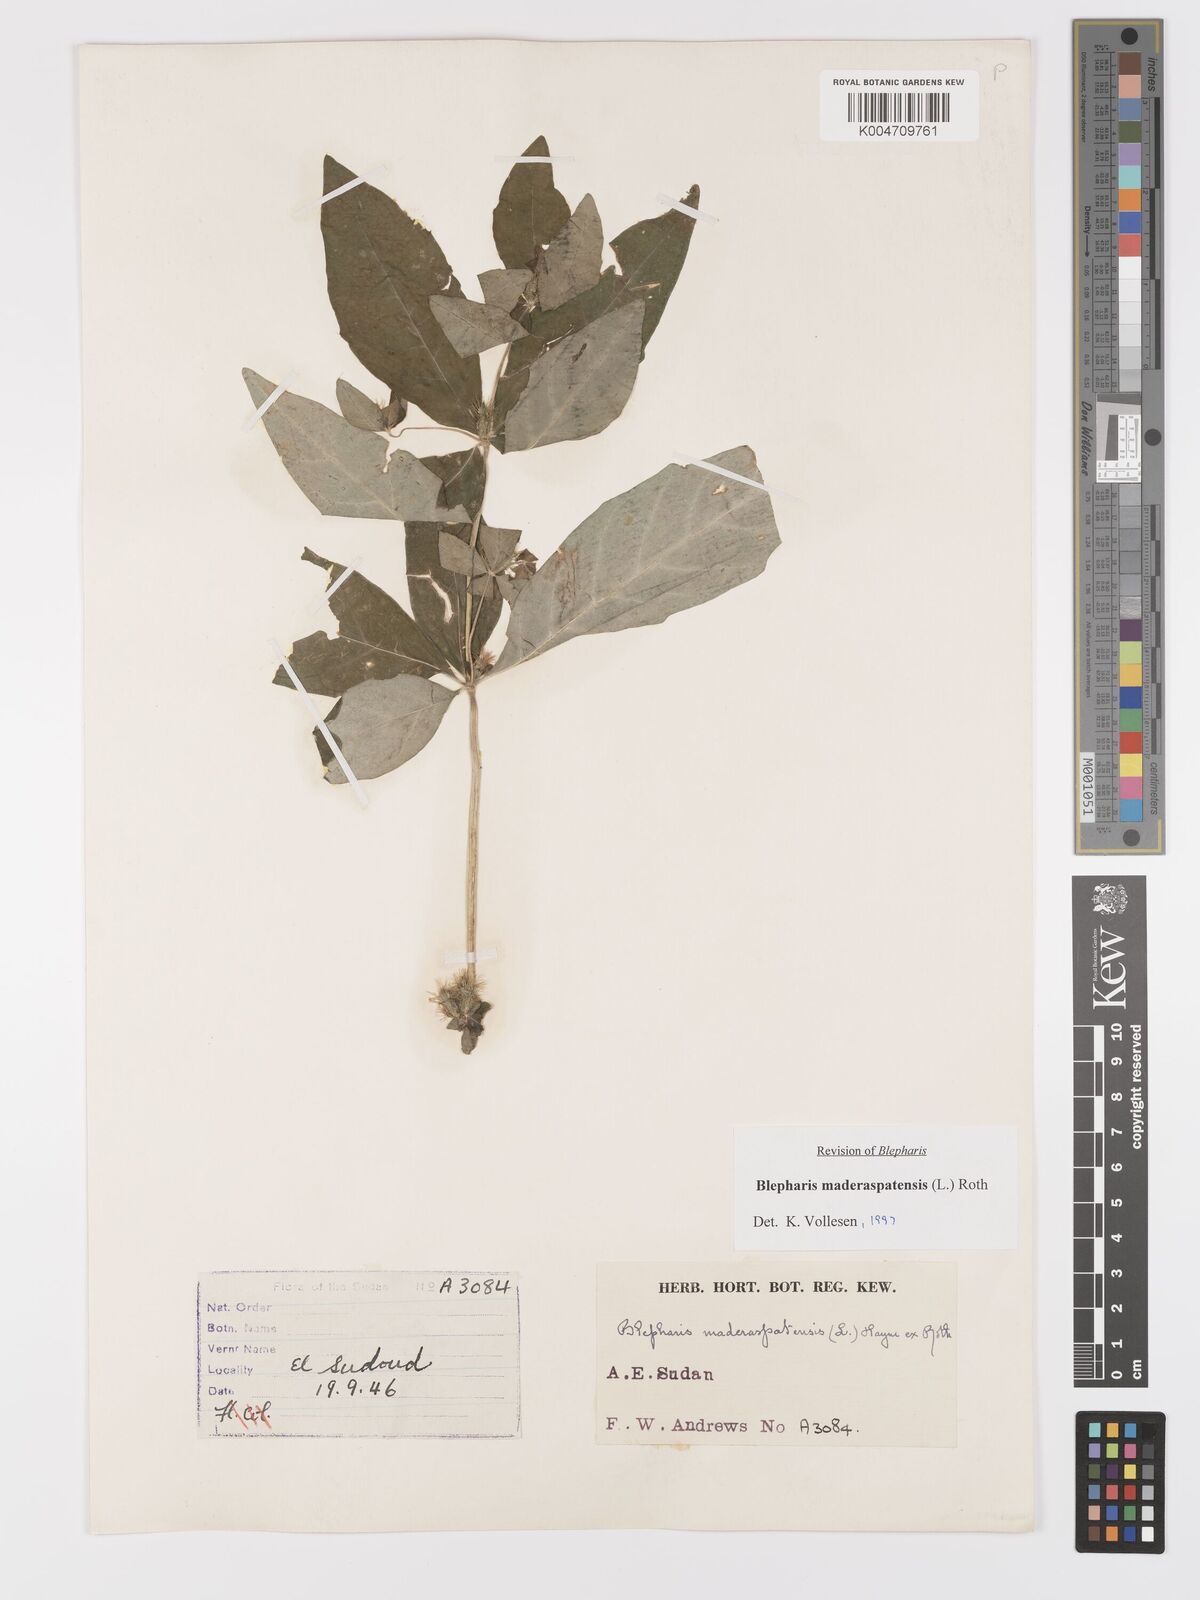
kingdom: Plantae
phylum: Tracheophyta
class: Magnoliopsida
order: Lamiales
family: Acanthaceae
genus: Blepharis
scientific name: Blepharis maderaspatensis
